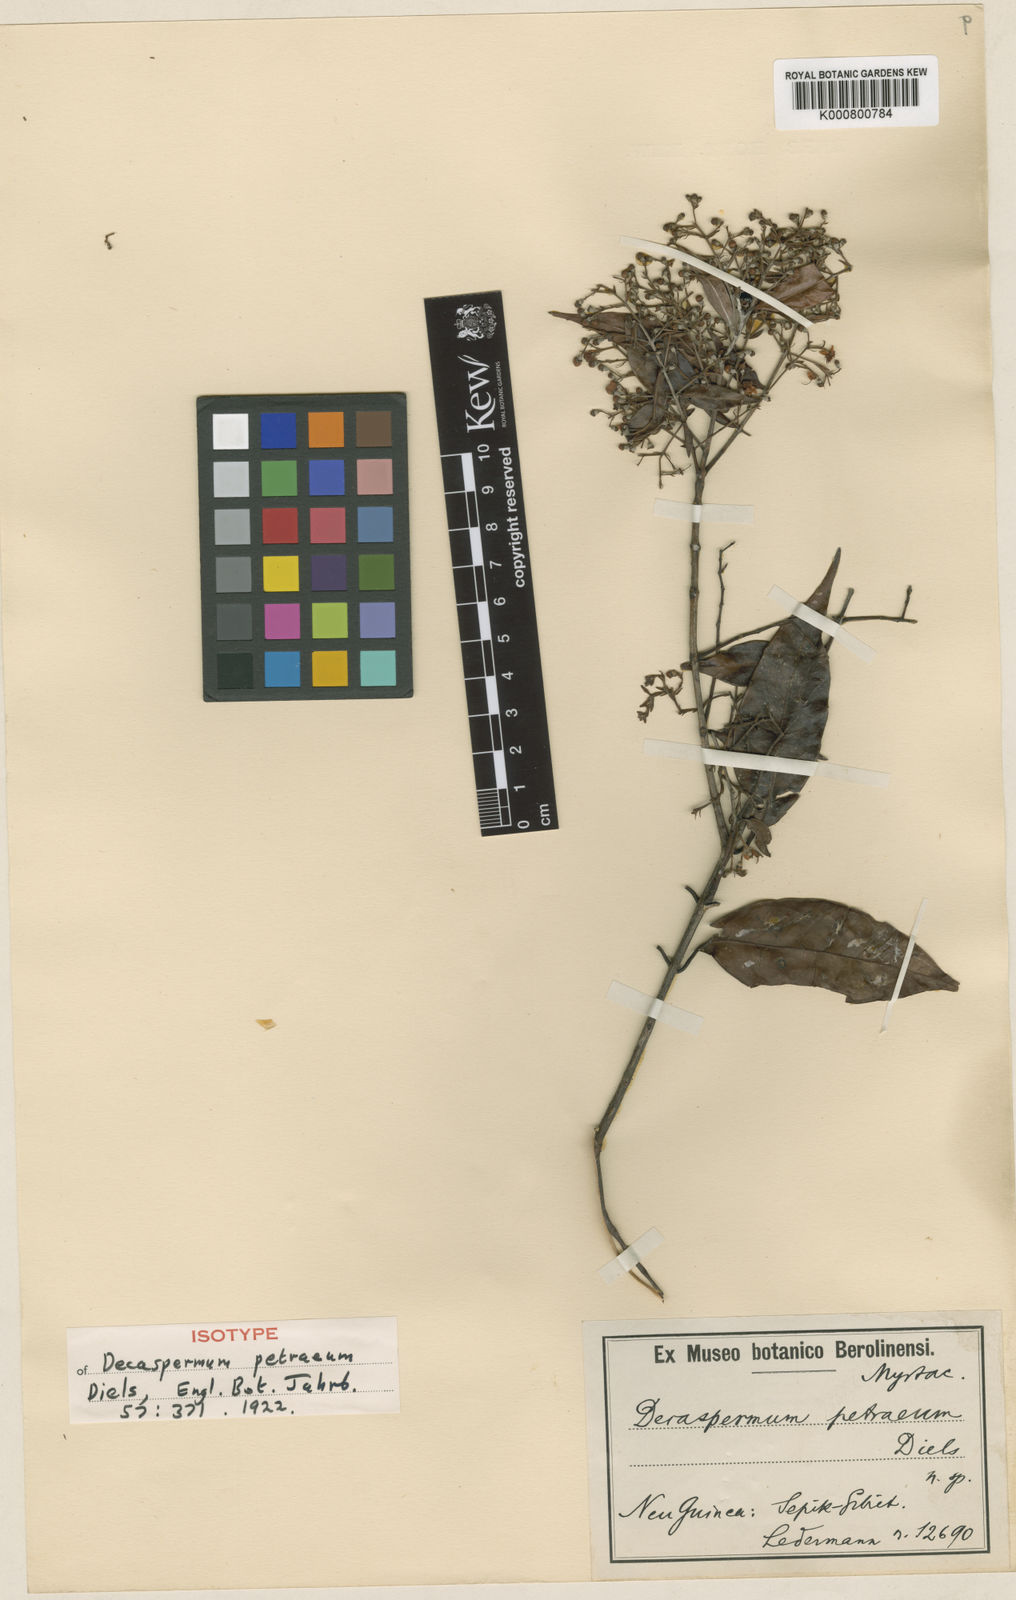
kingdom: Plantae
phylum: Tracheophyta
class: Magnoliopsida
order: Myrtales
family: Myrtaceae
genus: Decaspermum
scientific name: Decaspermum bracteatum
